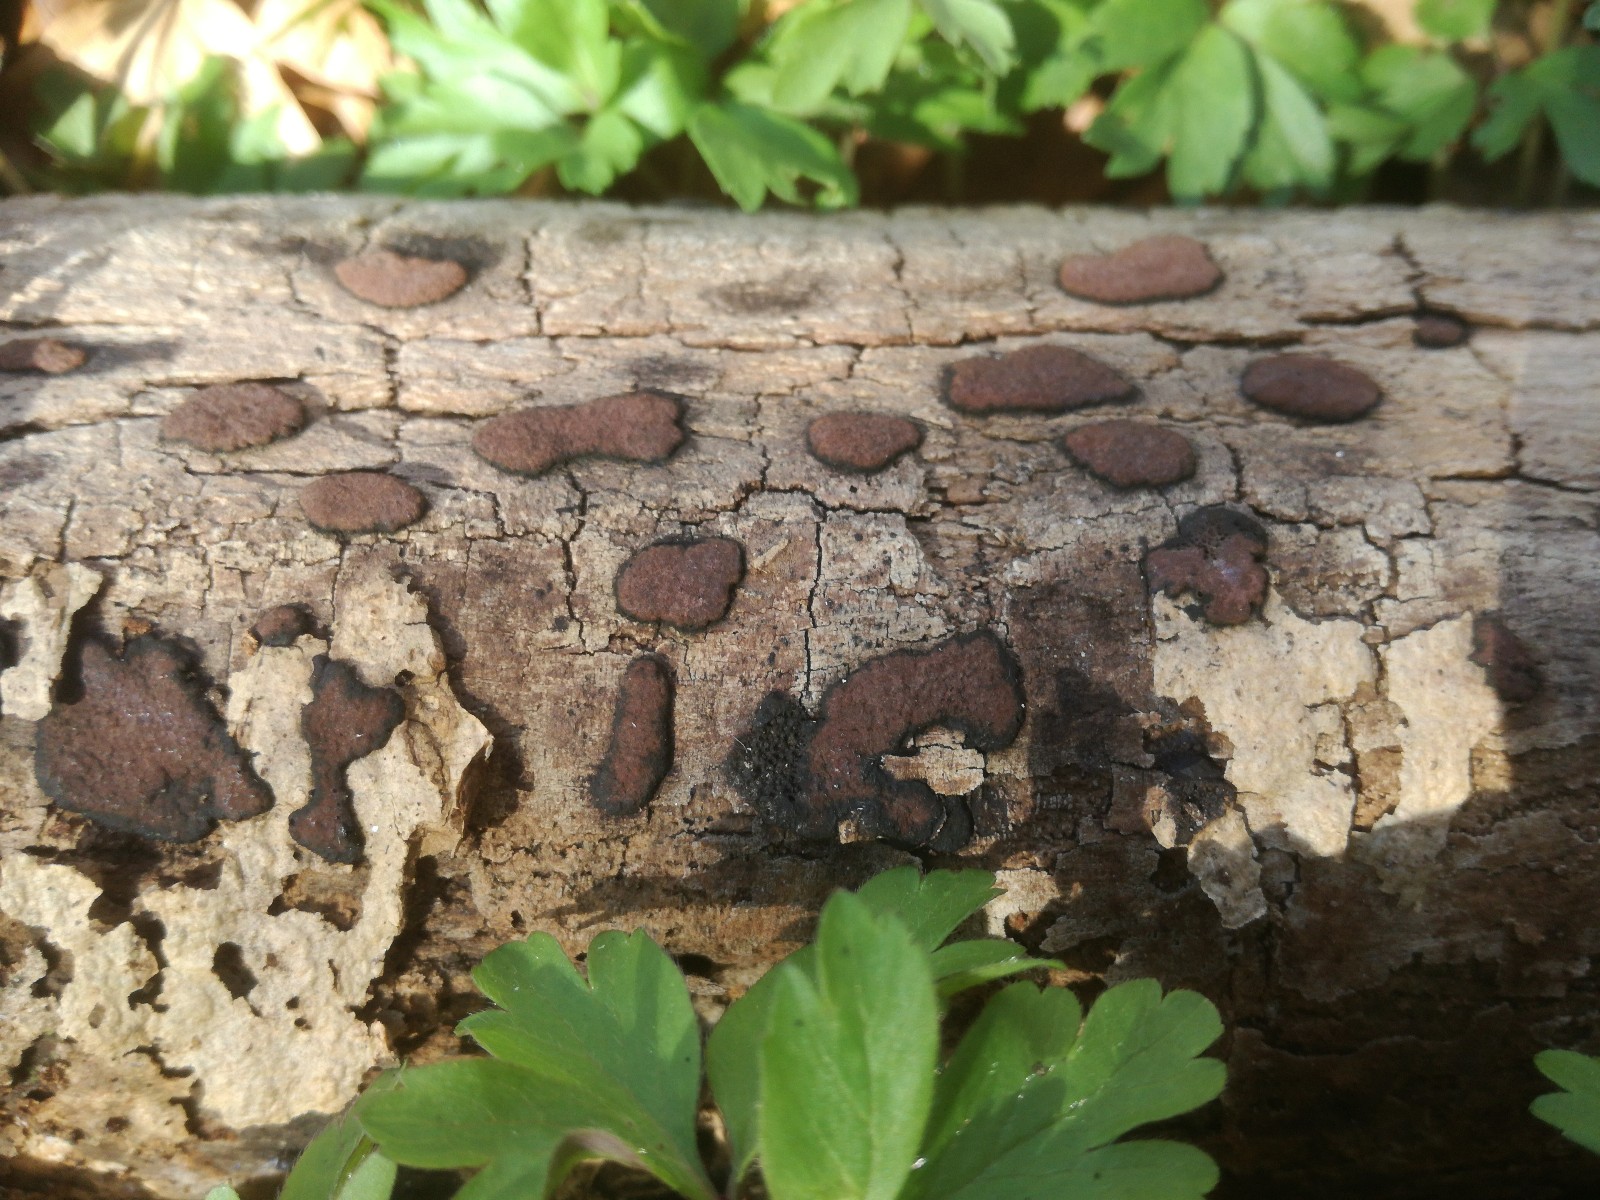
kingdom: Fungi
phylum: Ascomycota
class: Sordariomycetes
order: Xylariales
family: Hypoxylaceae
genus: Hypoxylon
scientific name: Hypoxylon petriniae
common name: nedsænket kulbær
